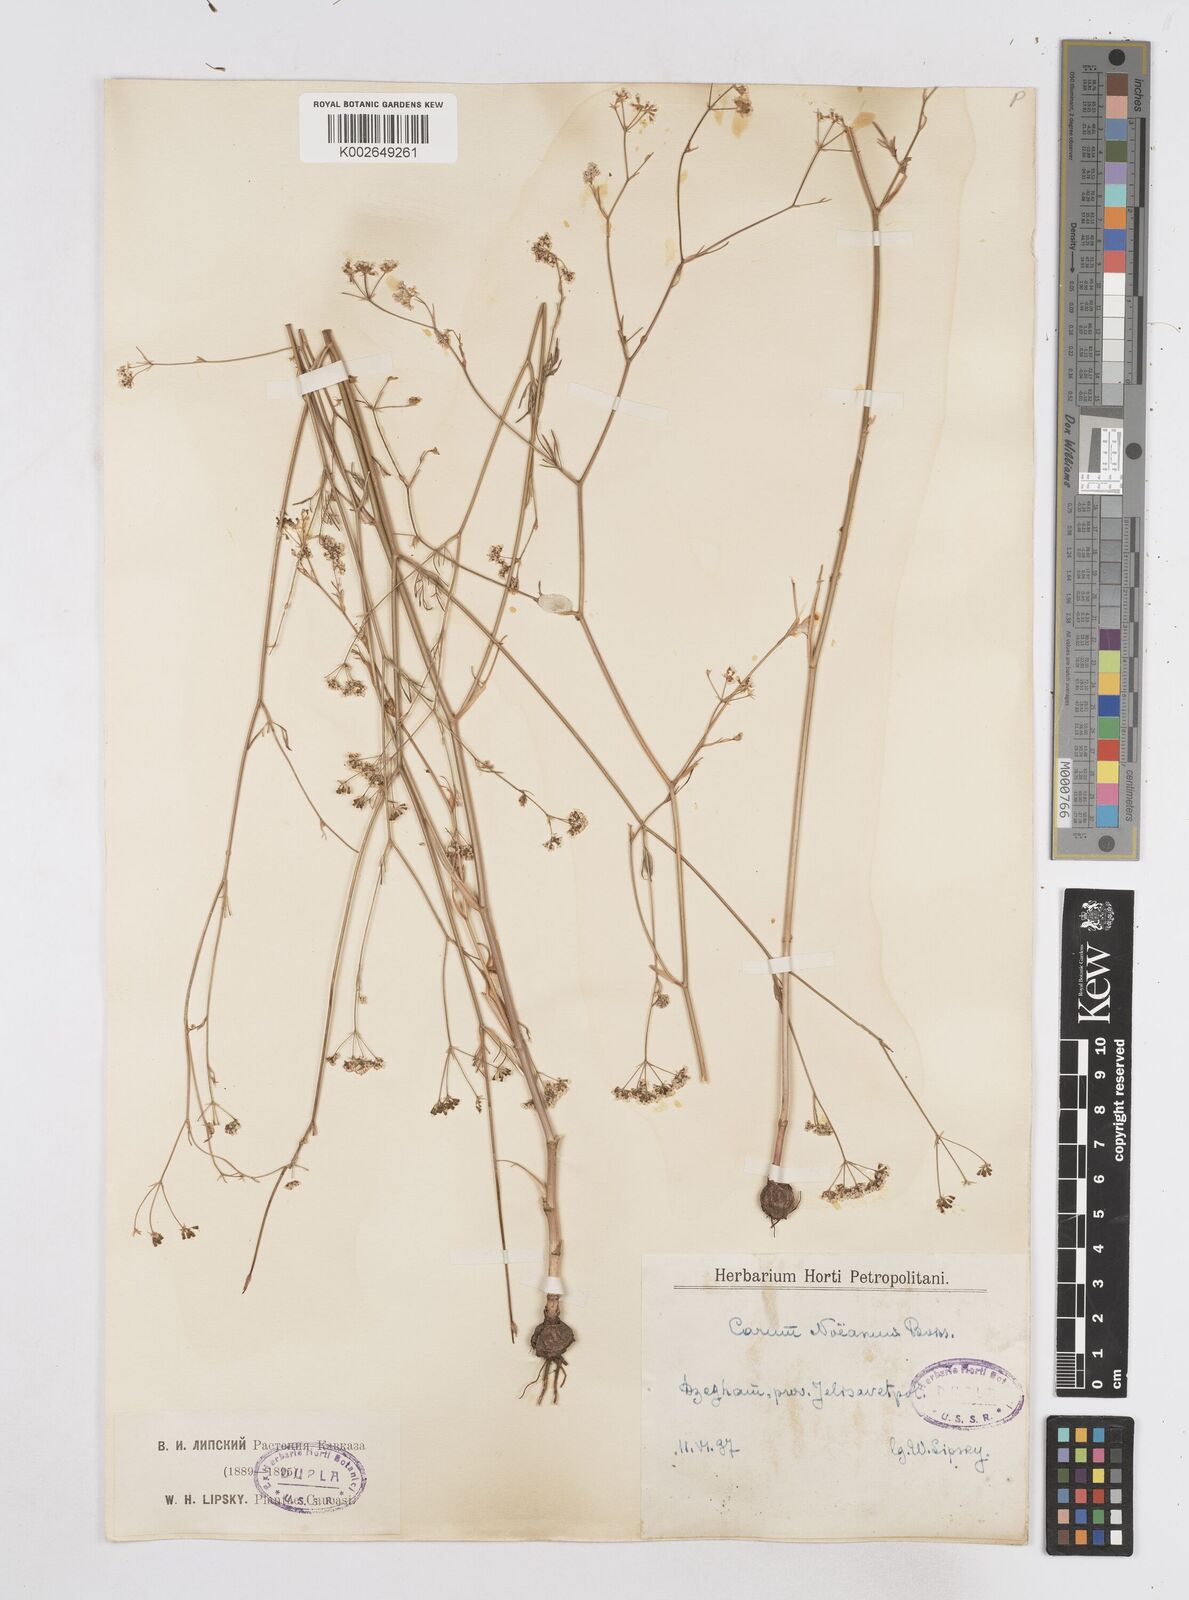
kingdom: Plantae
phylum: Tracheophyta
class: Magnoliopsida
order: Apiales
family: Apiaceae
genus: Bunium
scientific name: Bunium paucifolium
